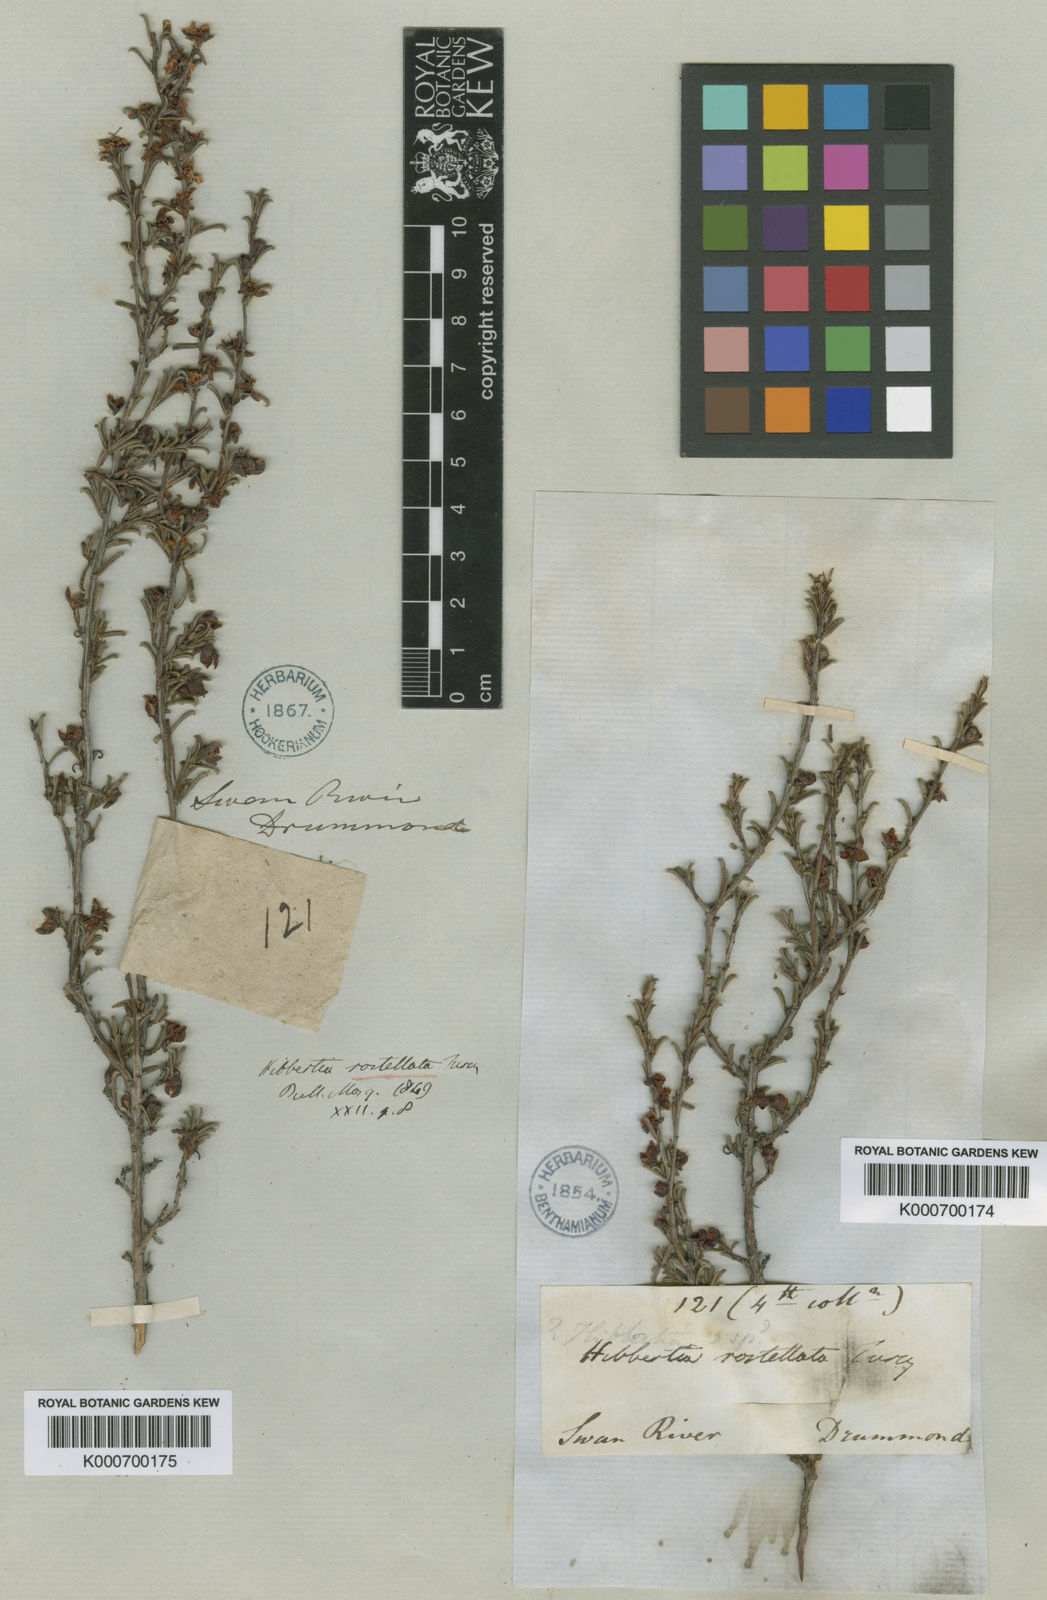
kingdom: Plantae
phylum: Tracheophyta
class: Magnoliopsida
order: Dilleniales
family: Dilleniaceae
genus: Hibbertia
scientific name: Hibbertia rostellata
